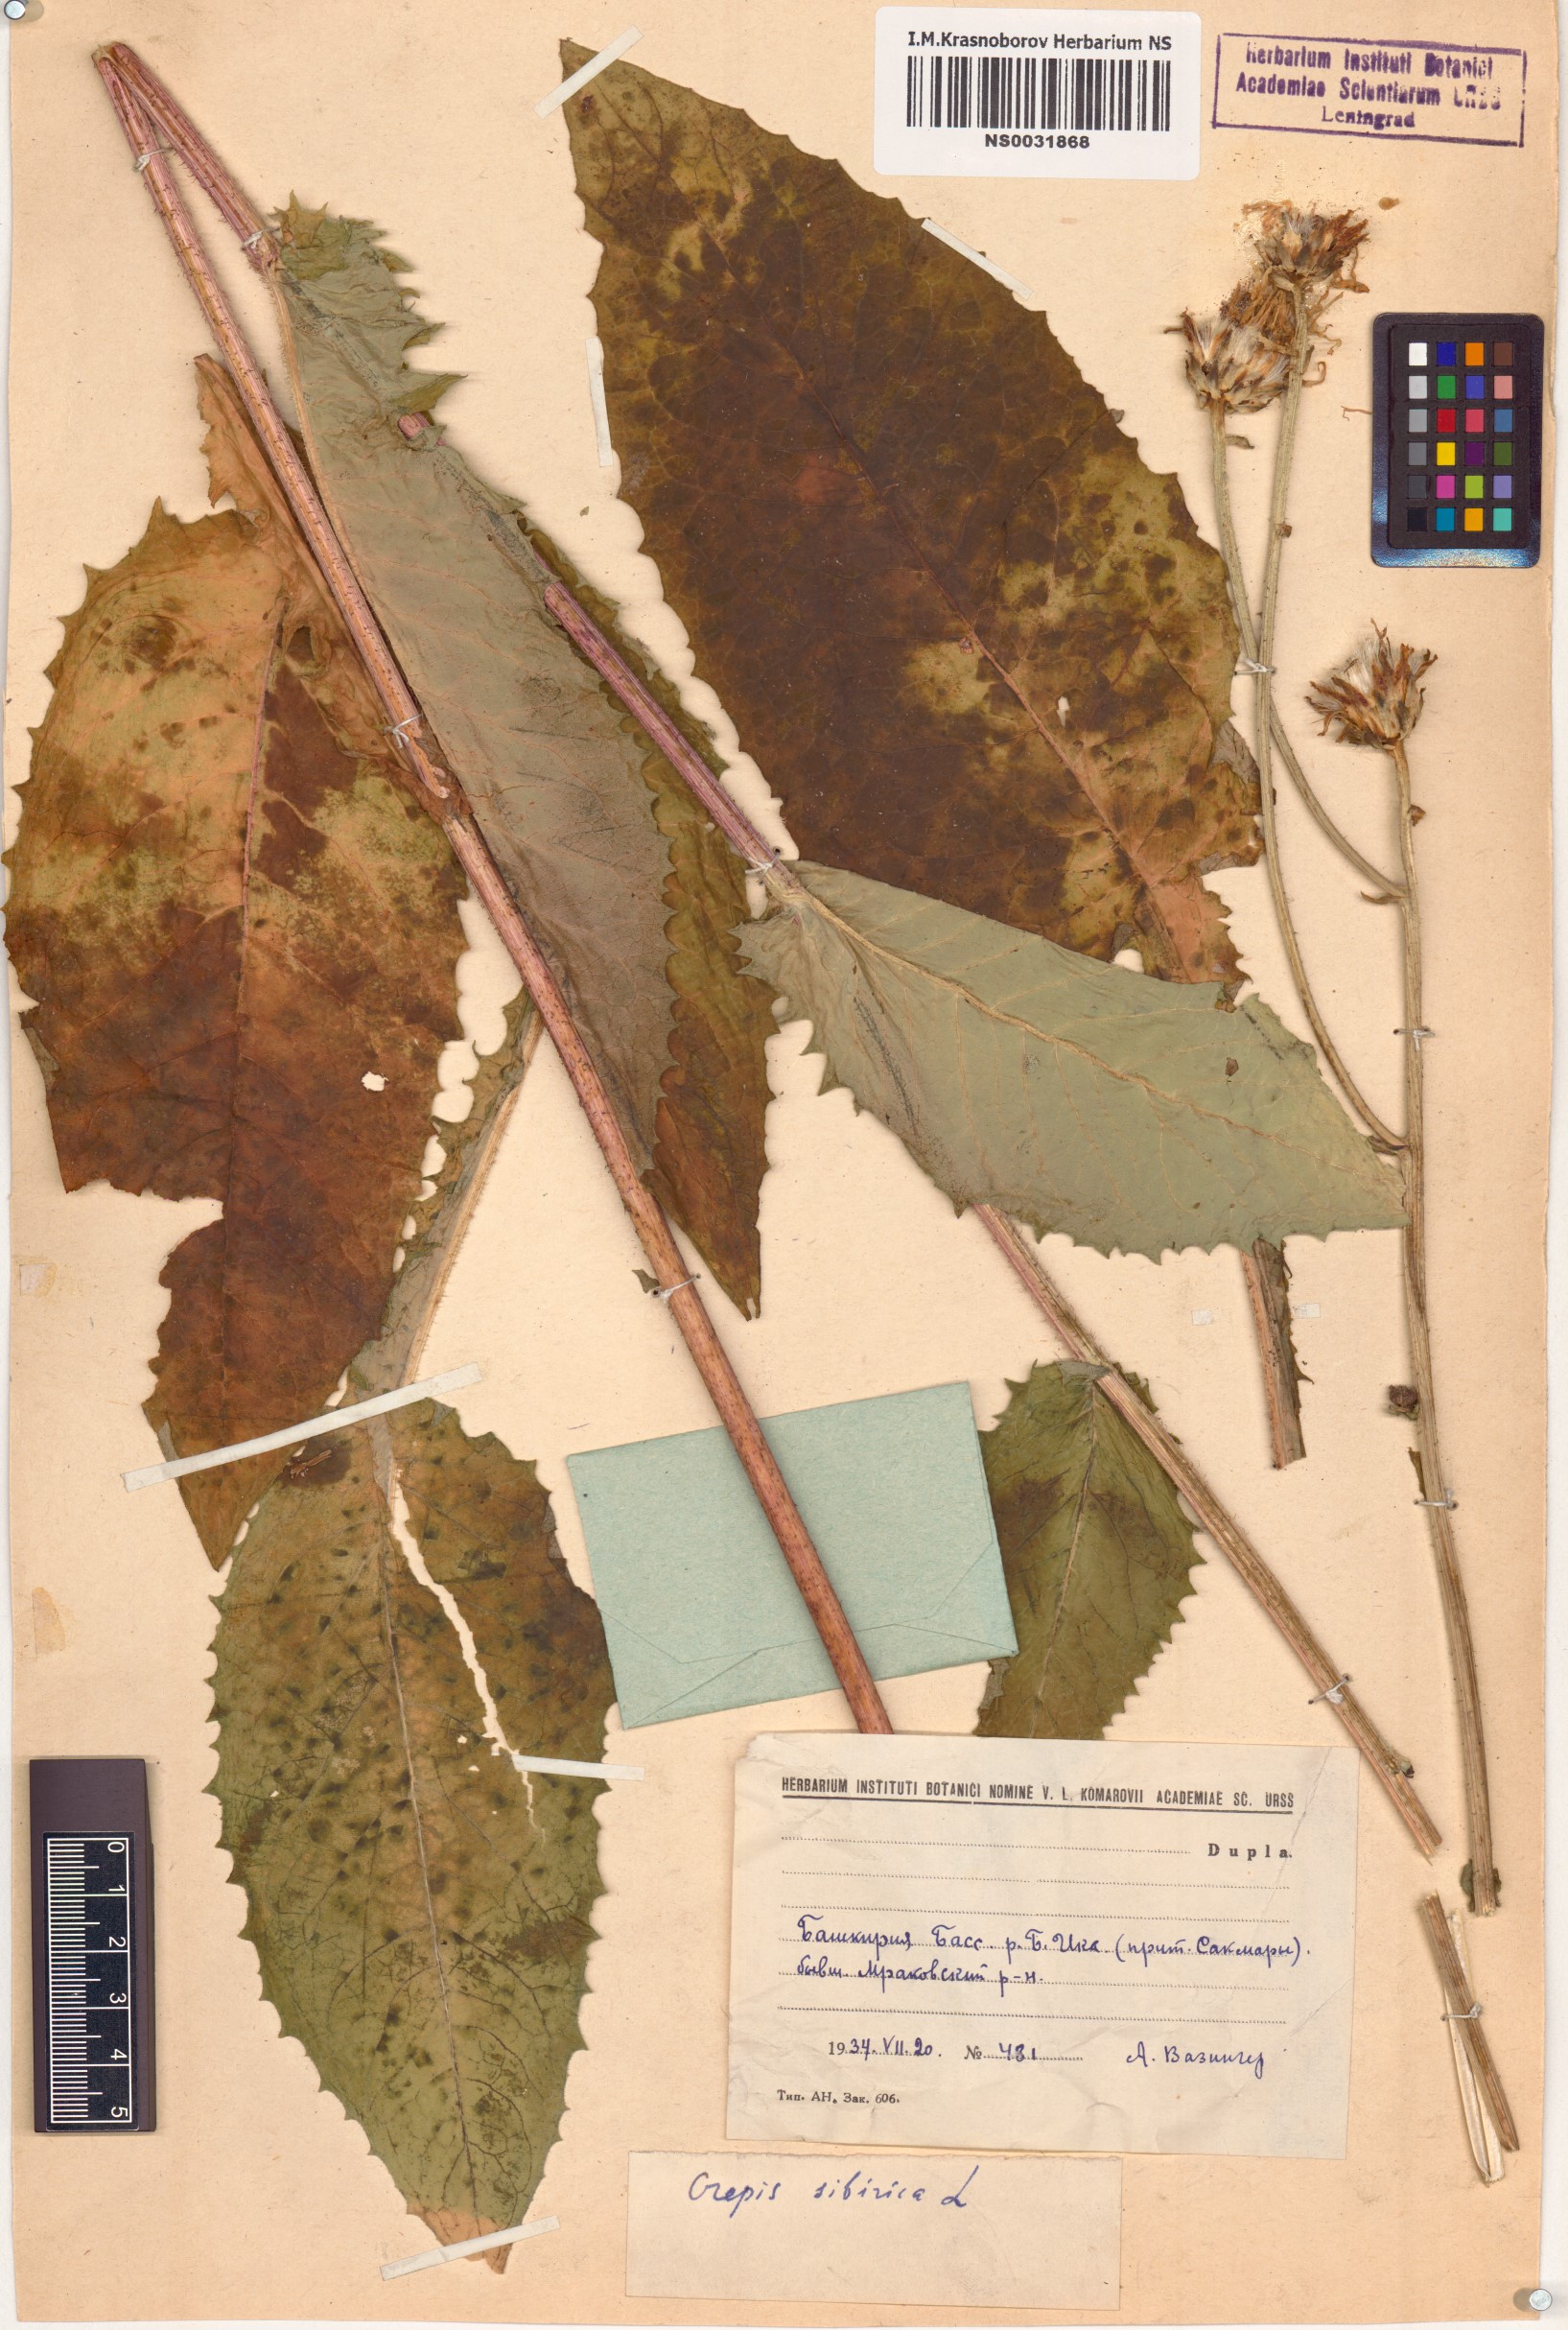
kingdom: Plantae
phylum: Tracheophyta
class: Magnoliopsida
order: Asterales
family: Asteraceae
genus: Crepis
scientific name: Crepis sibirica
